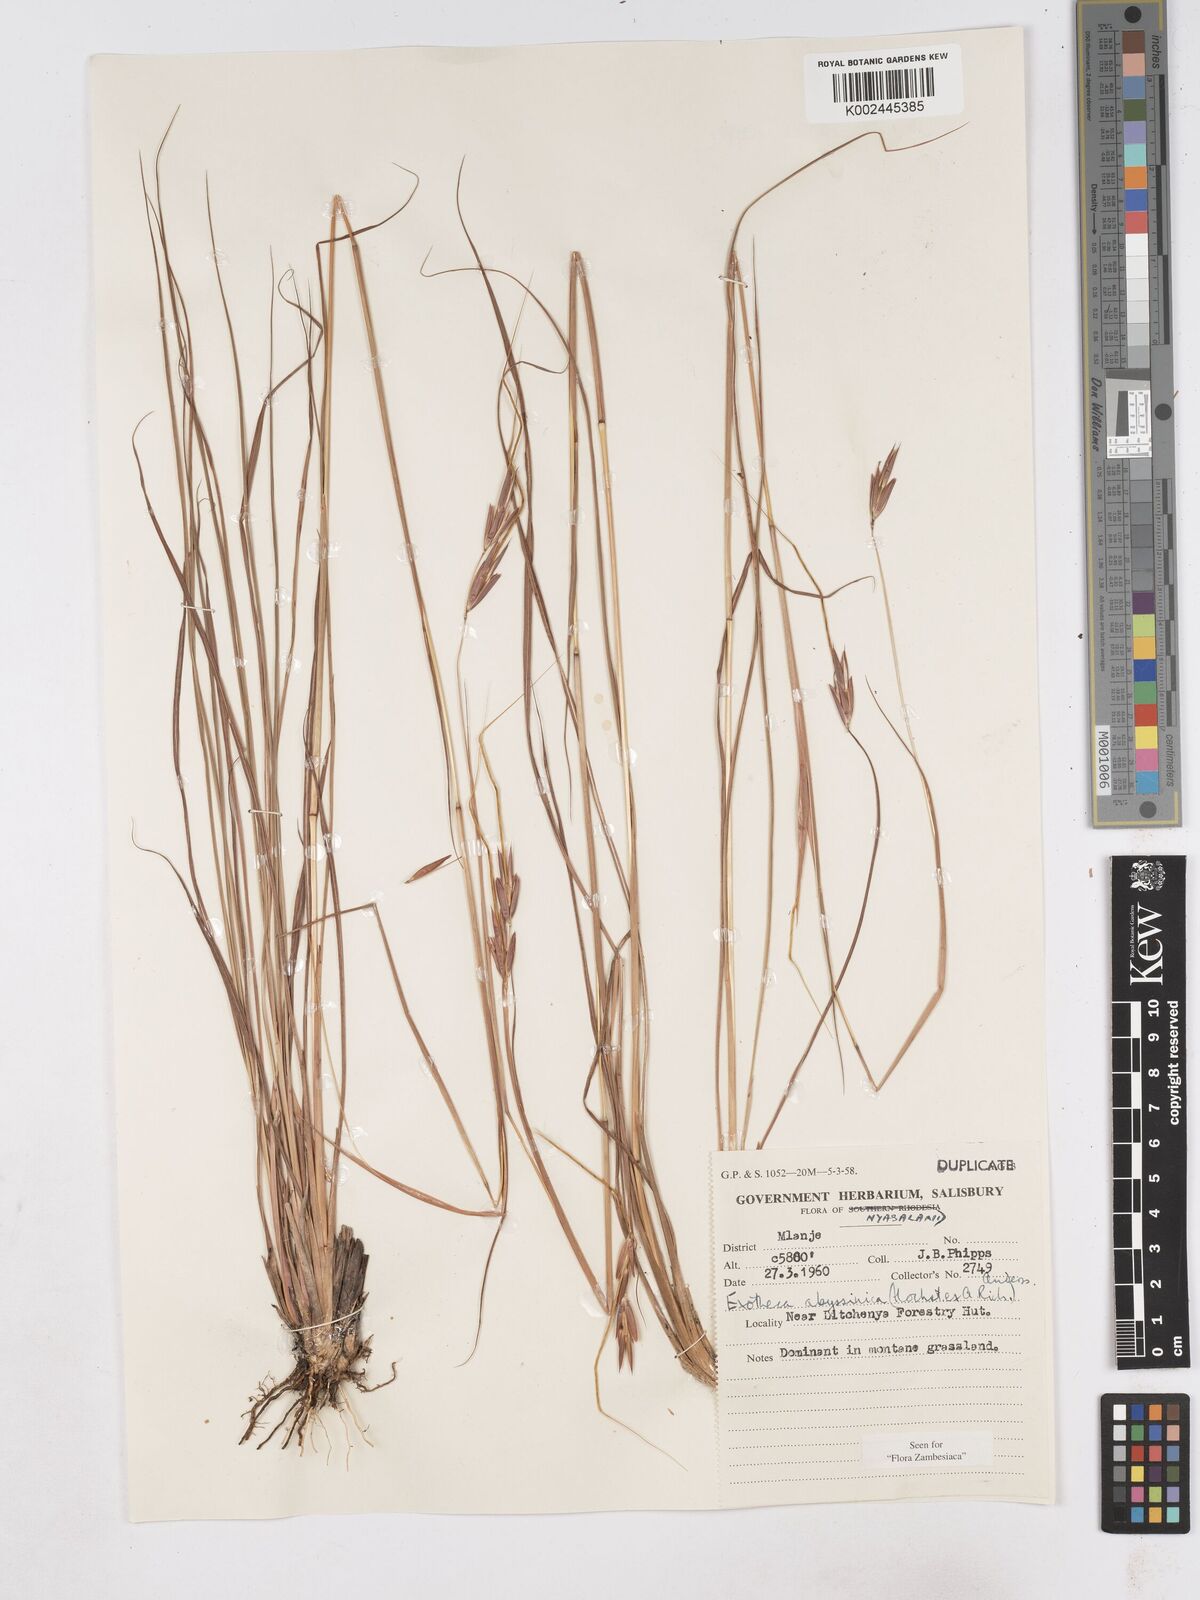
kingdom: Plantae
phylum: Tracheophyta
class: Liliopsida
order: Poales
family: Poaceae
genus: Exotheca
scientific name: Exotheca abyssinica
